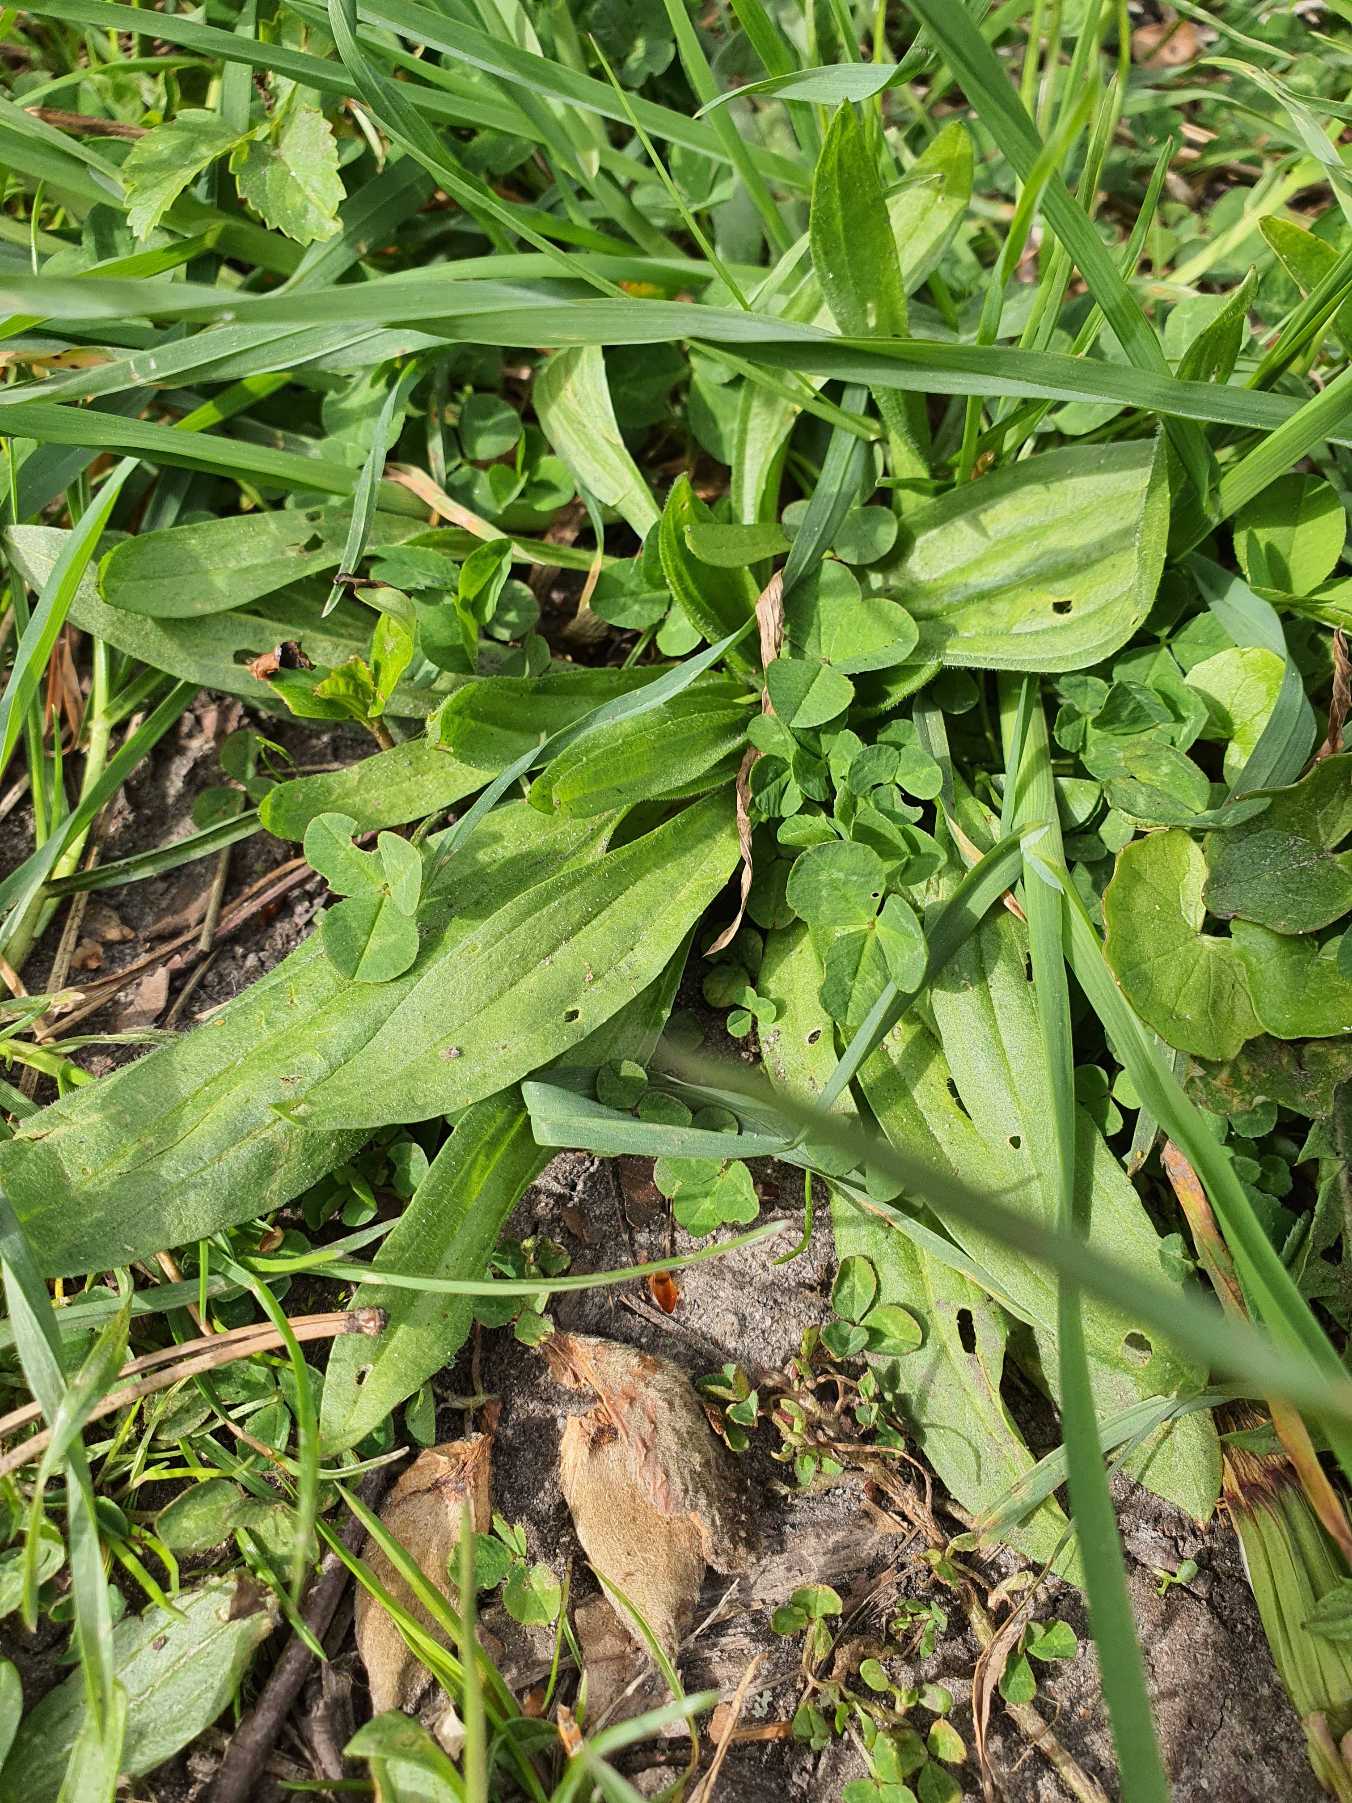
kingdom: Plantae
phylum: Tracheophyta
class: Magnoliopsida
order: Lamiales
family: Plantaginaceae
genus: Plantago
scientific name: Plantago lanceolata
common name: Lancet-vejbred
